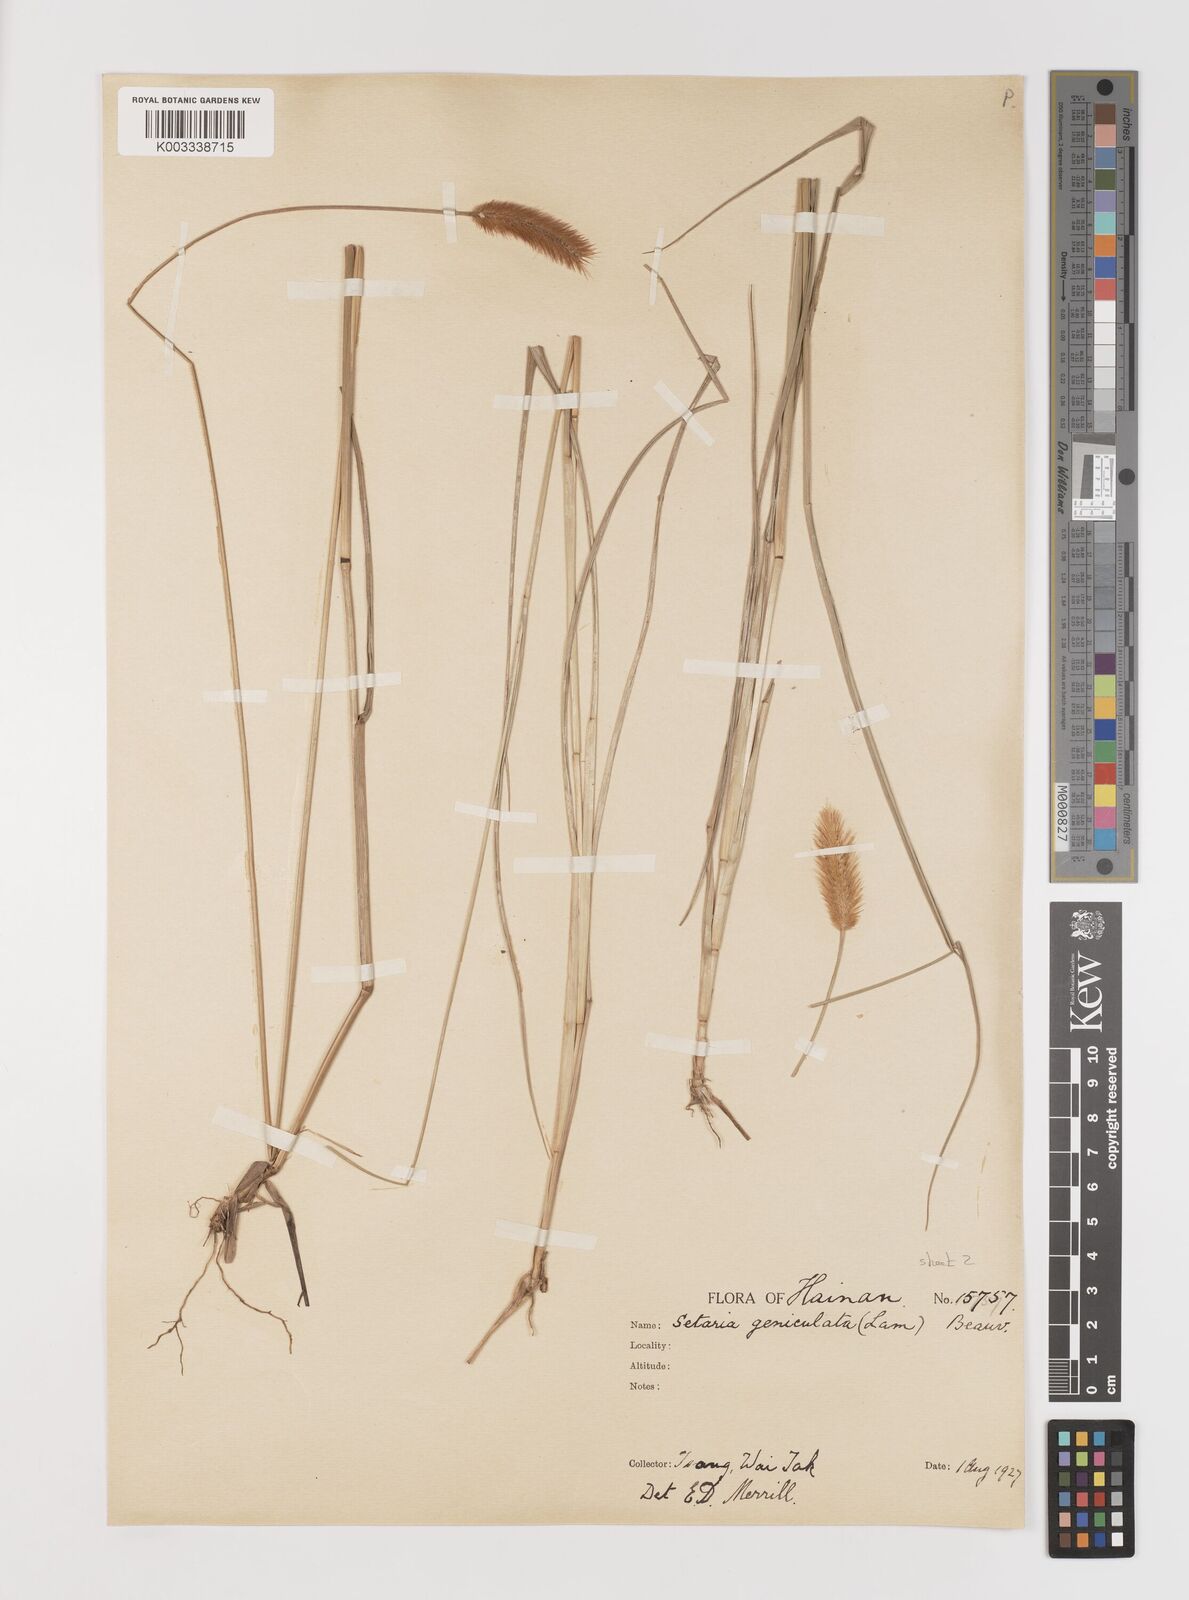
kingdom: Plantae
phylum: Tracheophyta
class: Liliopsida
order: Poales
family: Poaceae
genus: Setaria
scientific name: Setaria parviflora
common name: Knotroot bristle-grass
